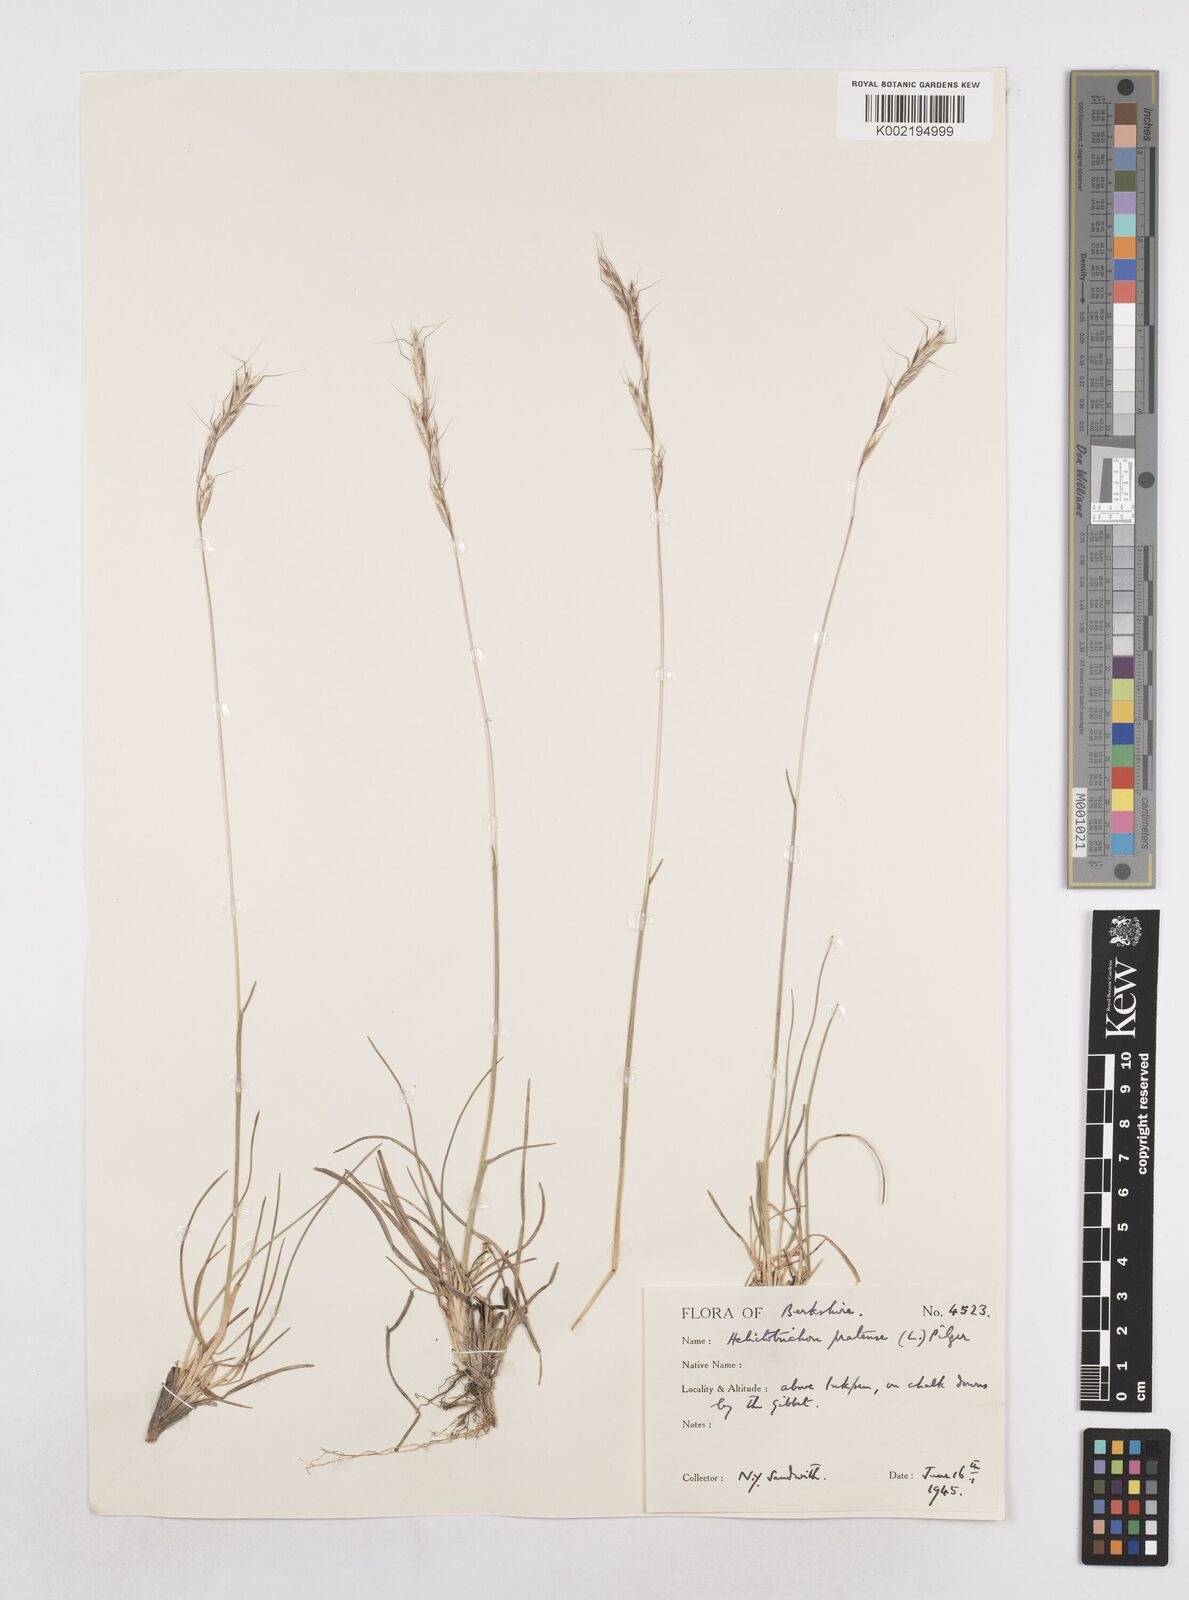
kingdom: Plantae
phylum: Tracheophyta
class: Liliopsida
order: Poales
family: Poaceae
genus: Helictochloa
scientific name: Helictochloa pratensis
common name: Meadow oat grass
